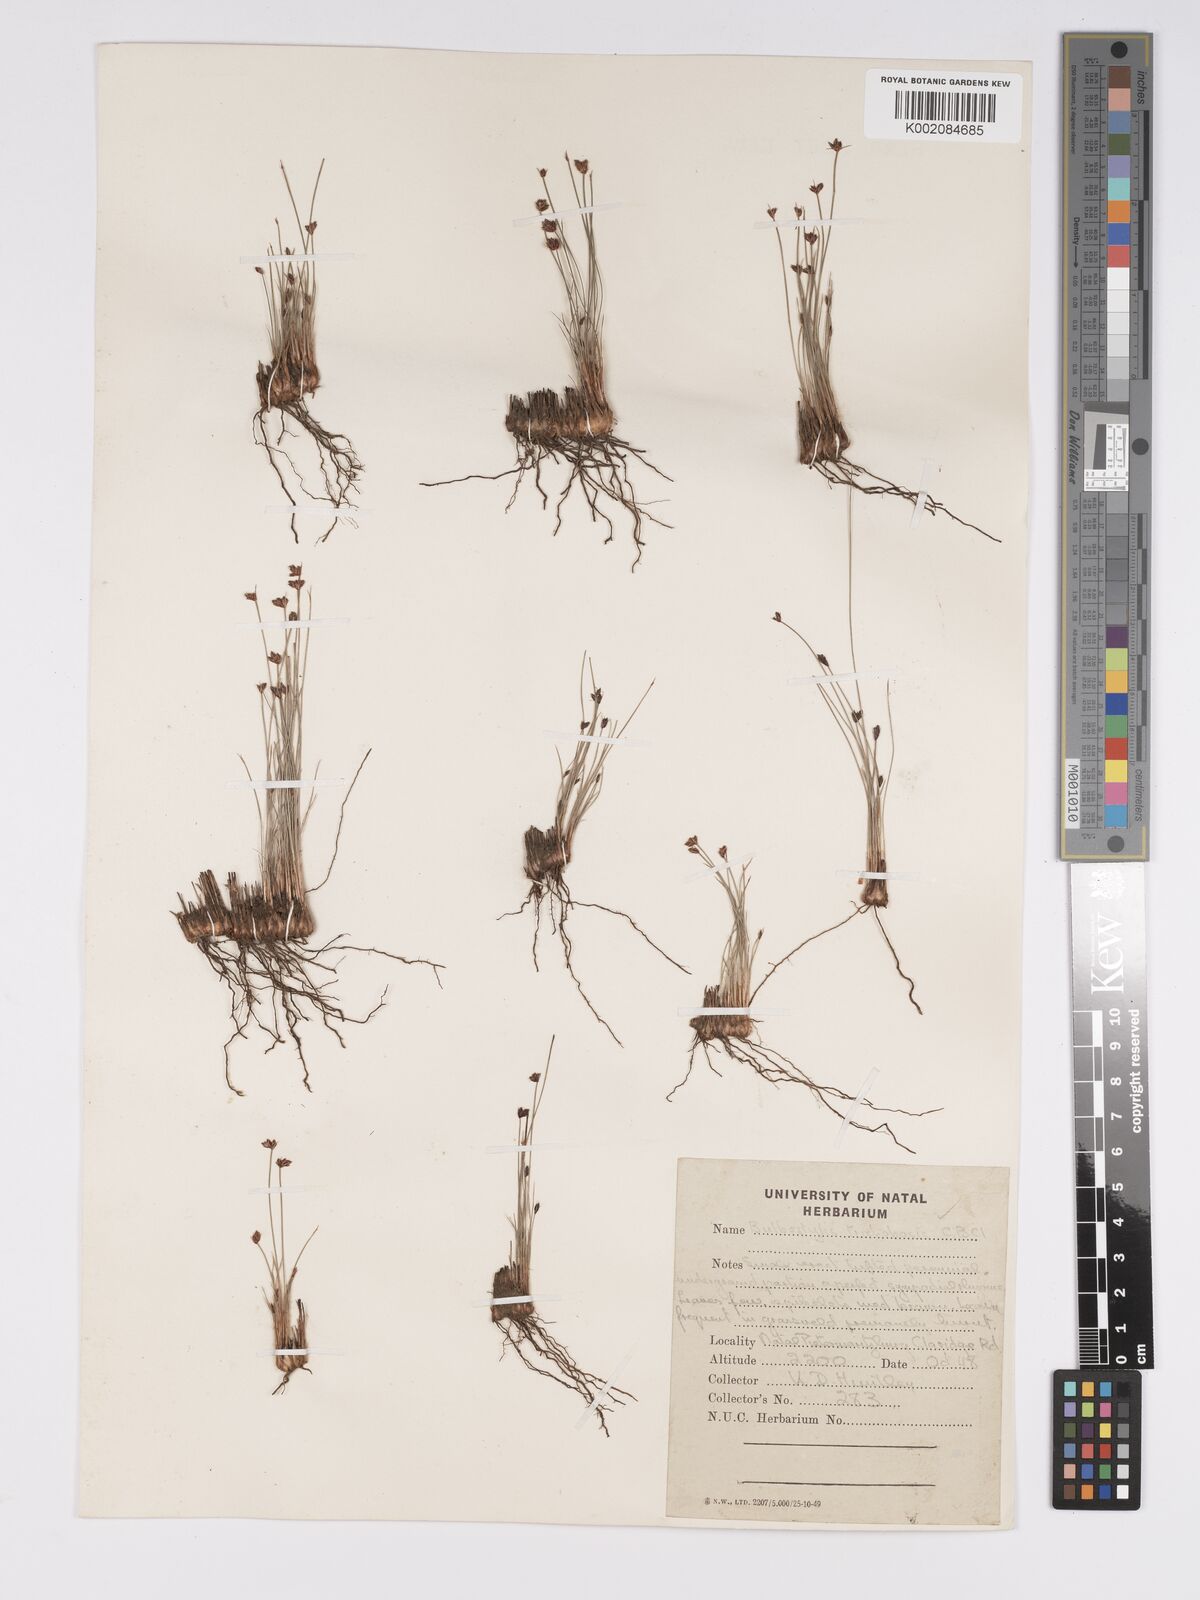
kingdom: Plantae
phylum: Tracheophyta
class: Liliopsida
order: Poales
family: Cyperaceae
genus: Bulbostylis
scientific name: Bulbostylis trichobasis
